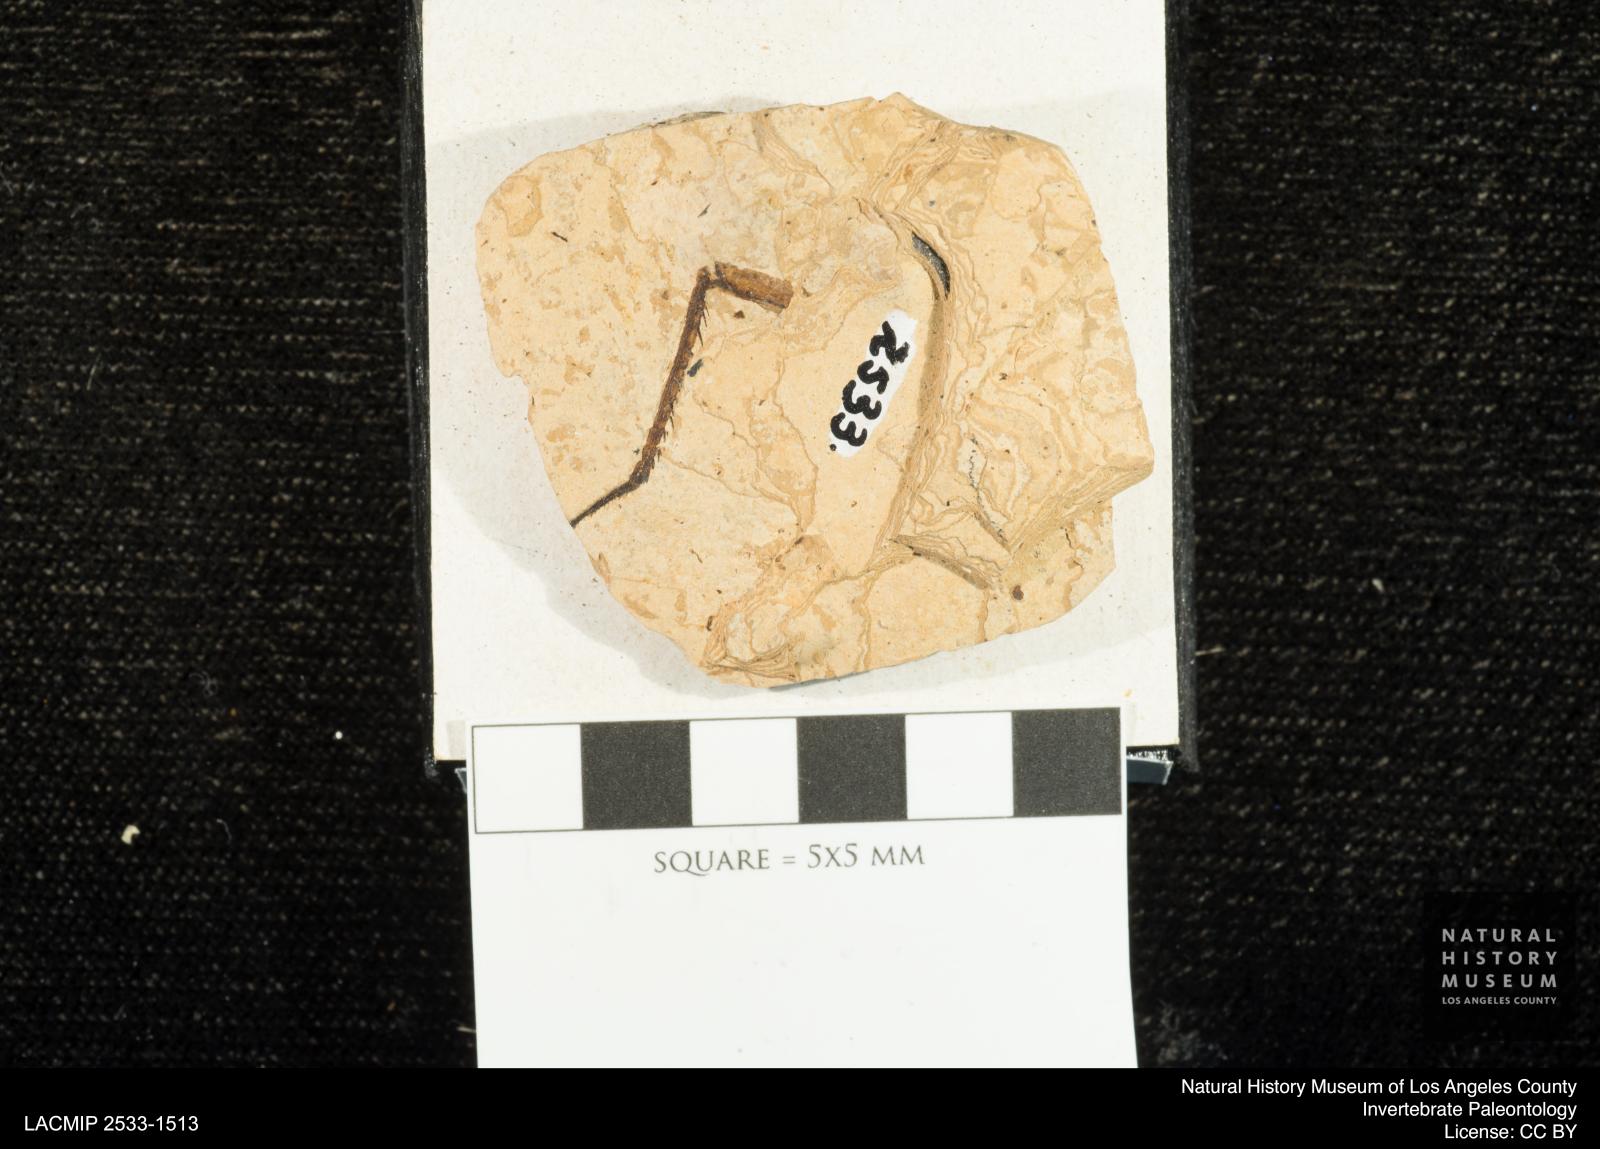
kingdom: Animalia
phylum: Arthropoda
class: Insecta
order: Odonata
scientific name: Odonata
